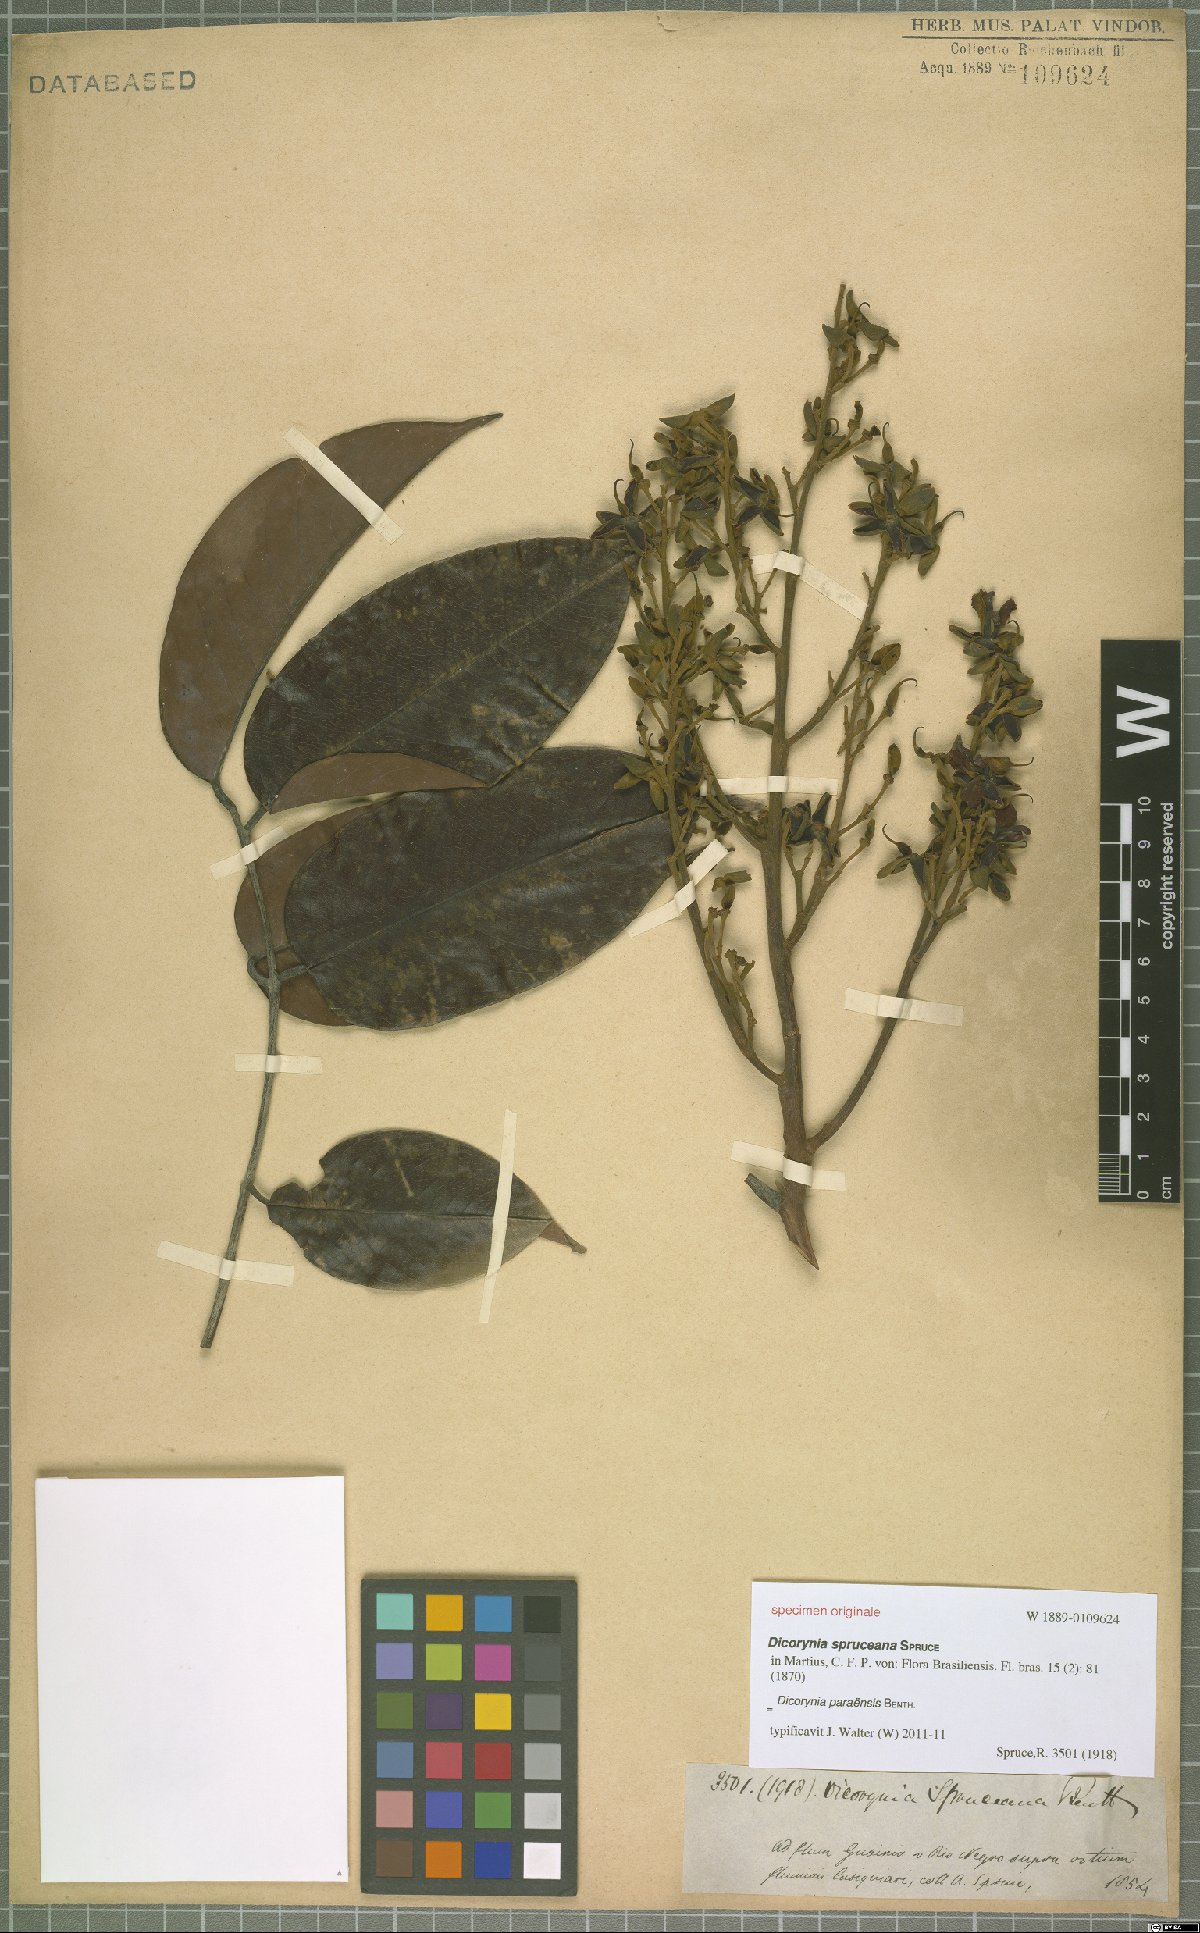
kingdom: Plantae
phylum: Tracheophyta
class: Magnoliopsida
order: Fabales
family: Fabaceae
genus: Dicorynia
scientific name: Dicorynia paraensis
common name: Angelique
